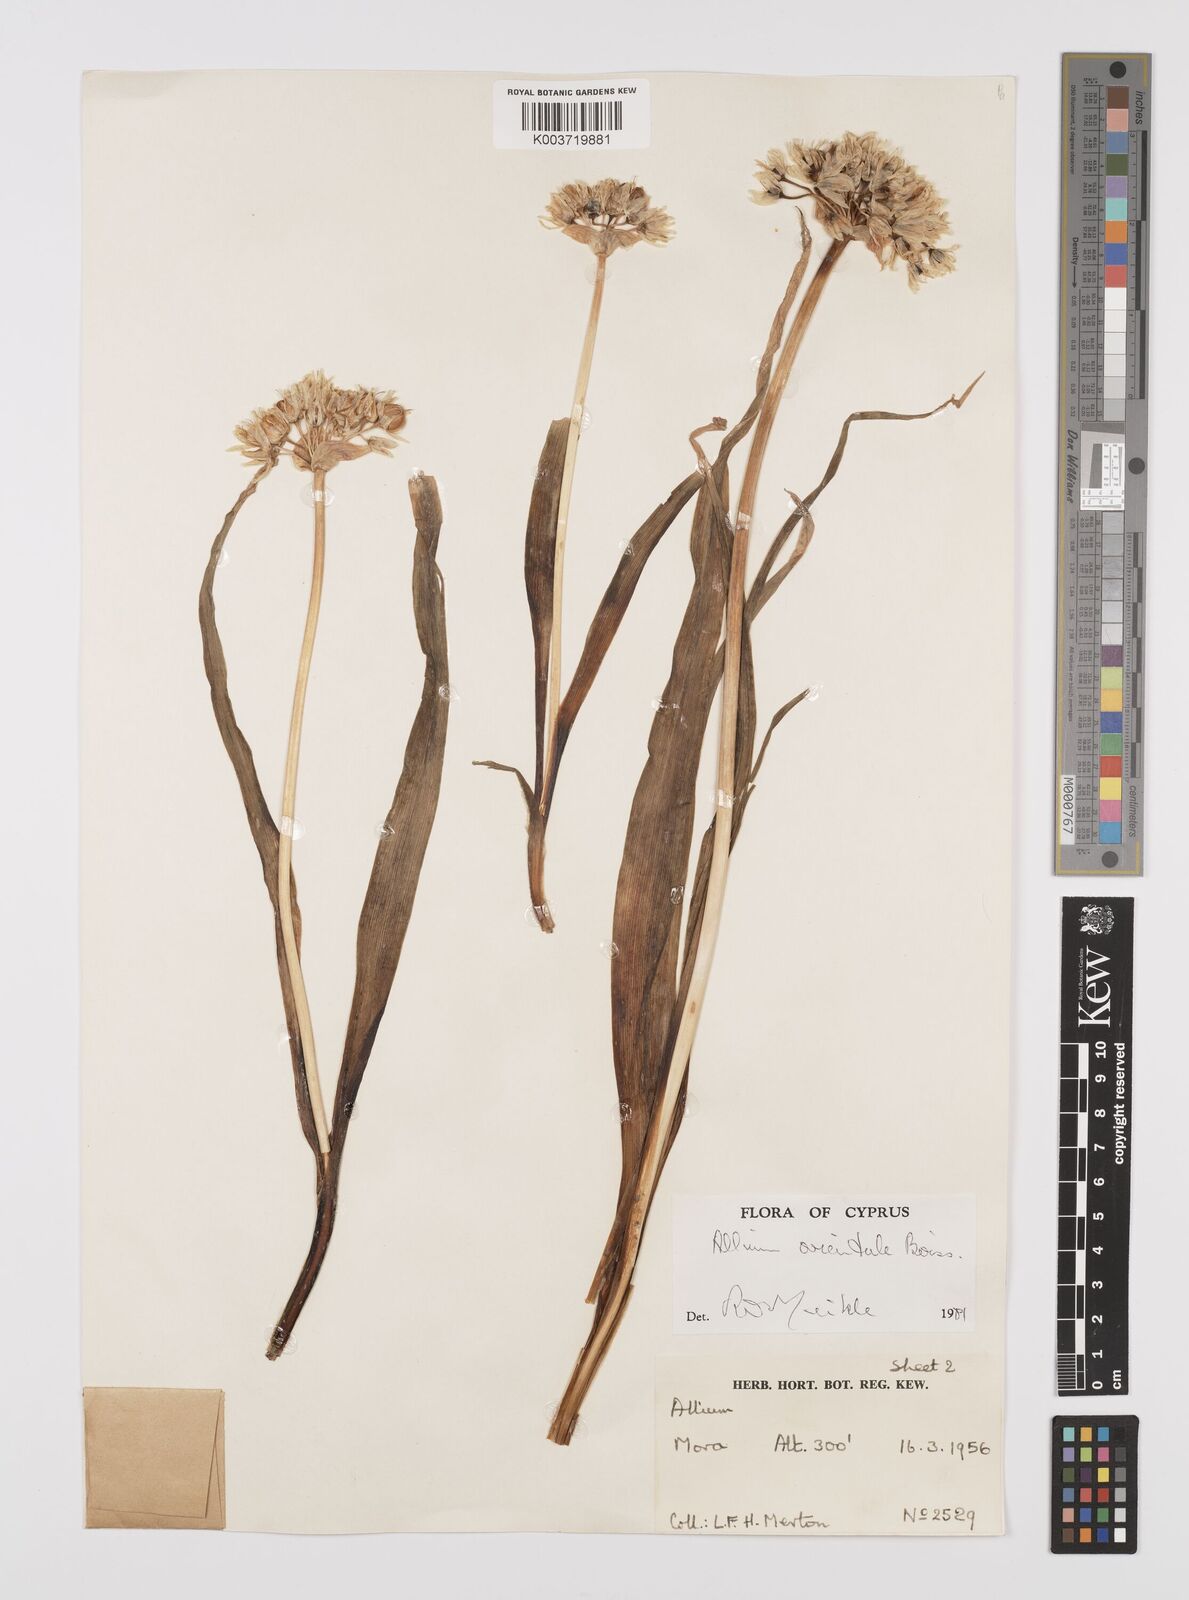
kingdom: Plantae
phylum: Tracheophyta
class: Liliopsida
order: Asparagales
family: Amaryllidaceae
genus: Allium
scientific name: Allium orientale
